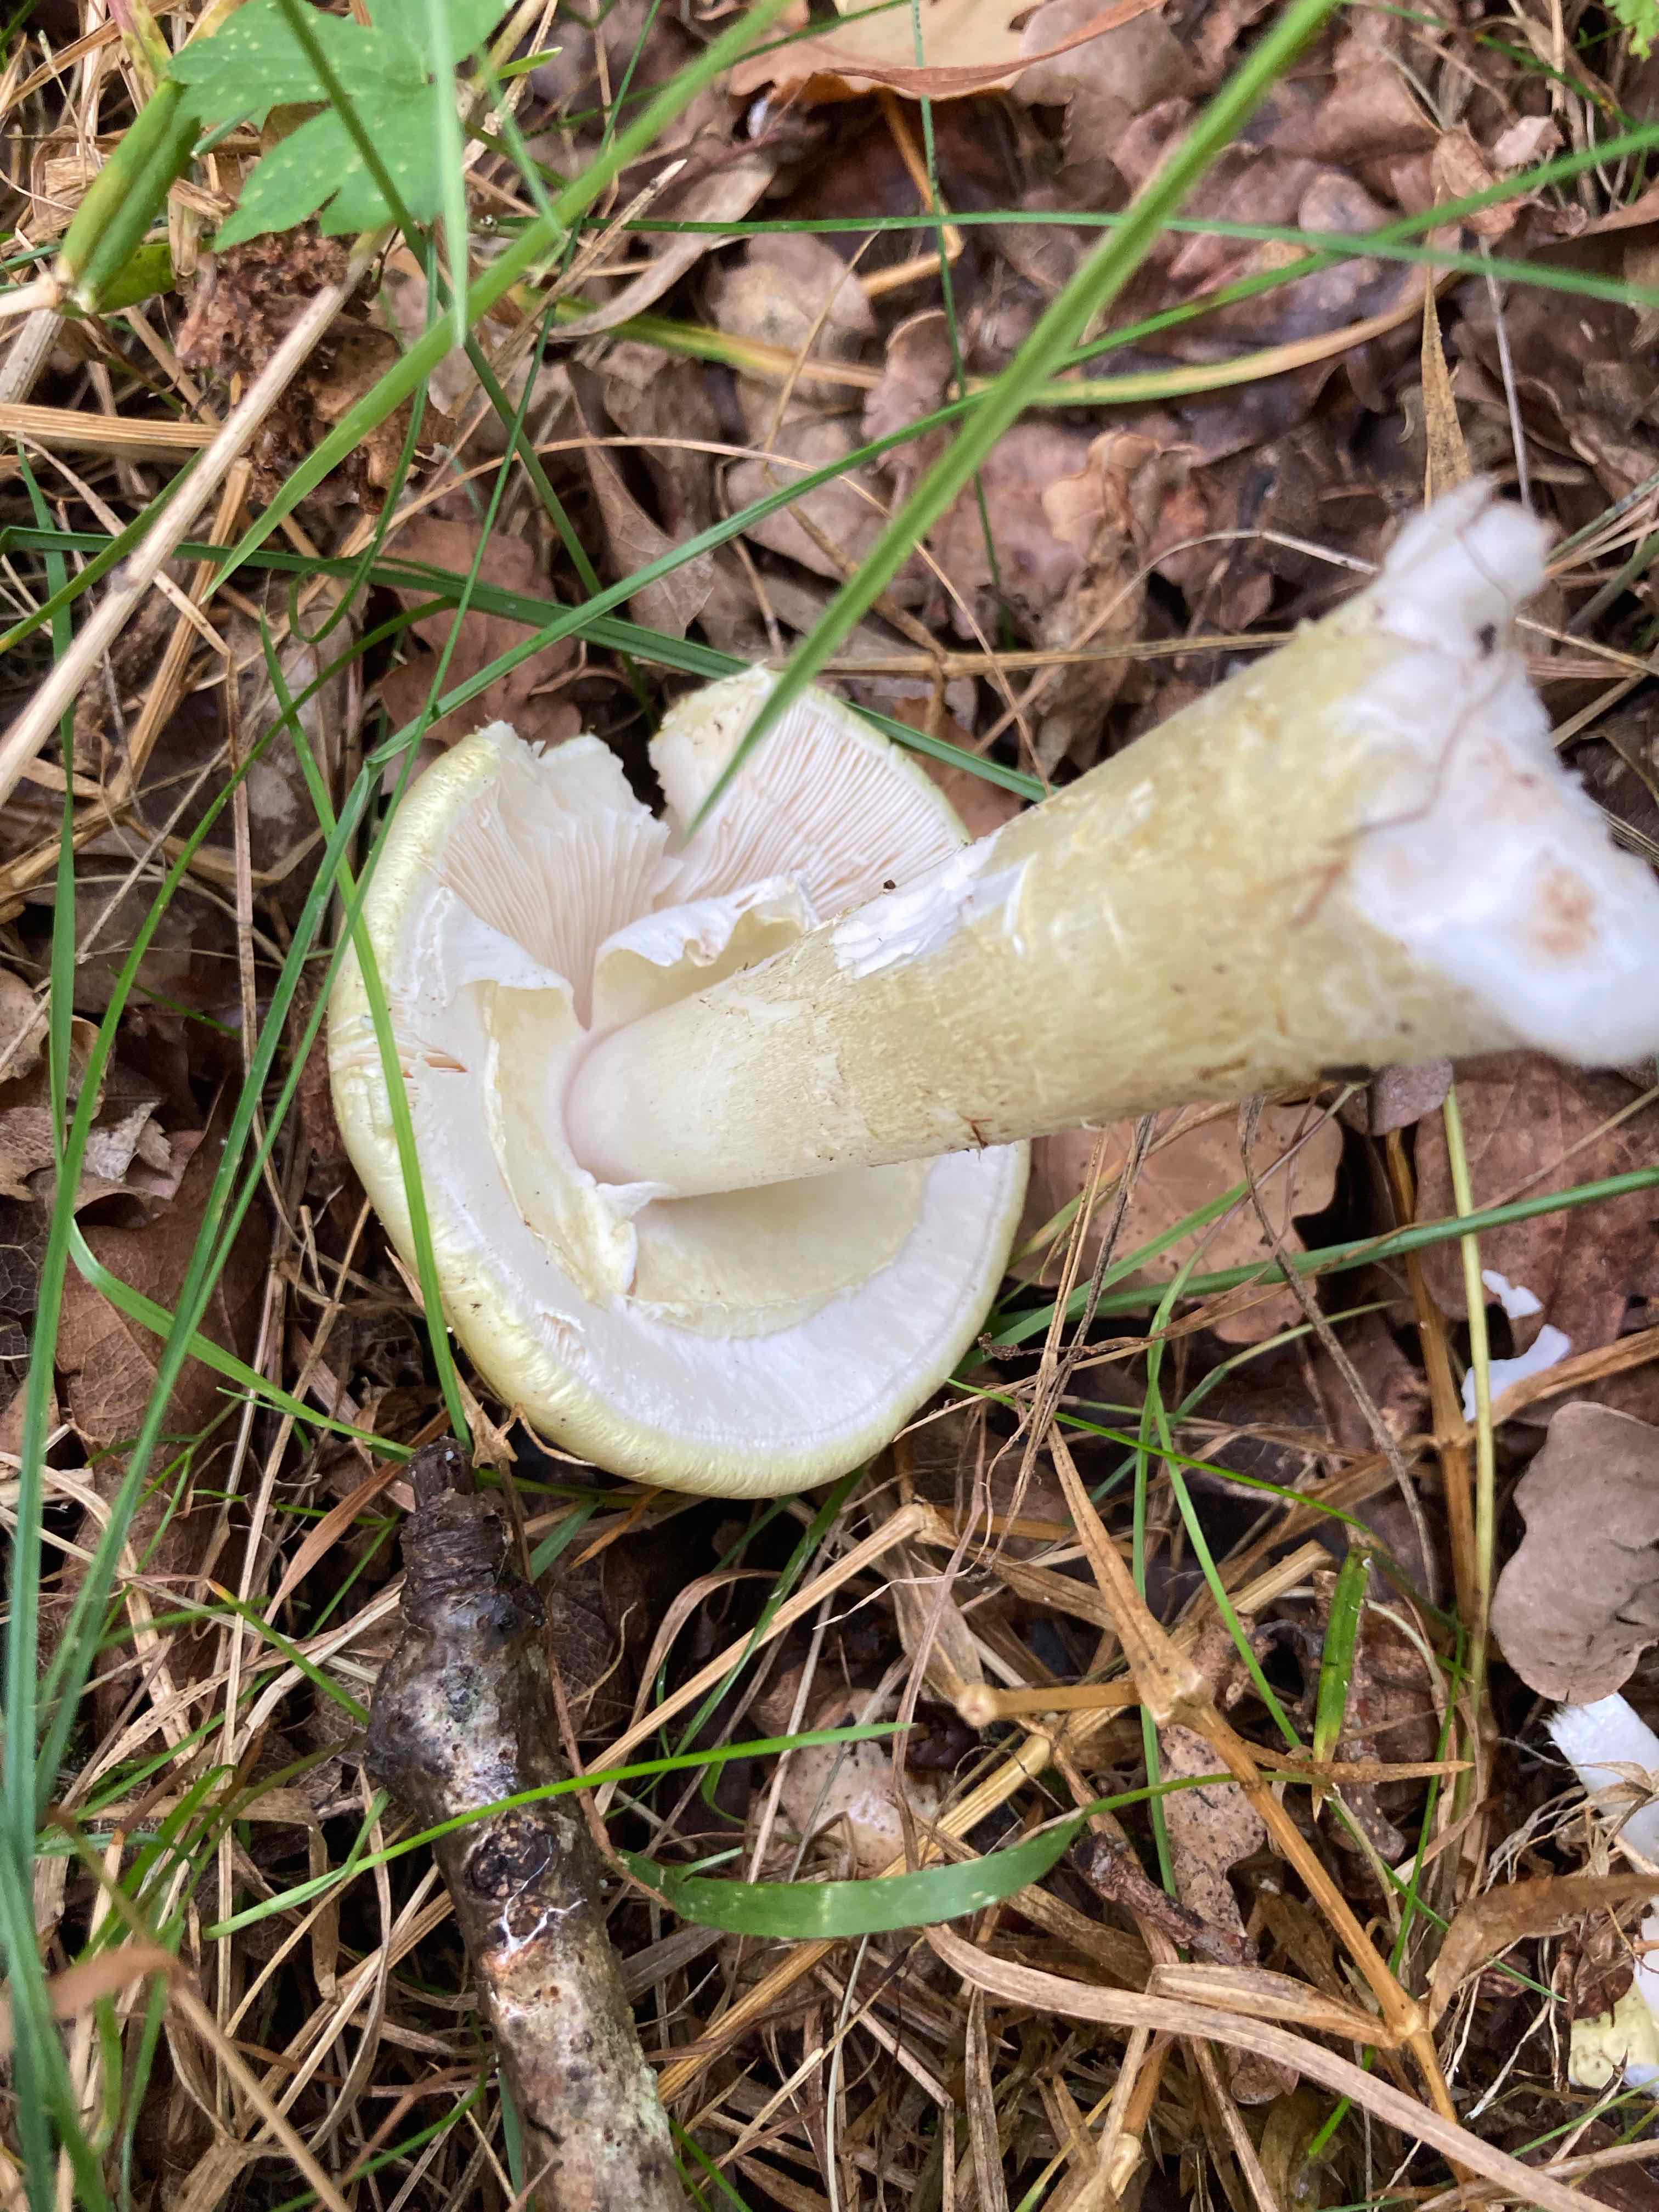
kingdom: Fungi
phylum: Basidiomycota
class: Agaricomycetes
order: Agaricales
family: Amanitaceae
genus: Amanita
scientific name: Amanita phalloides
